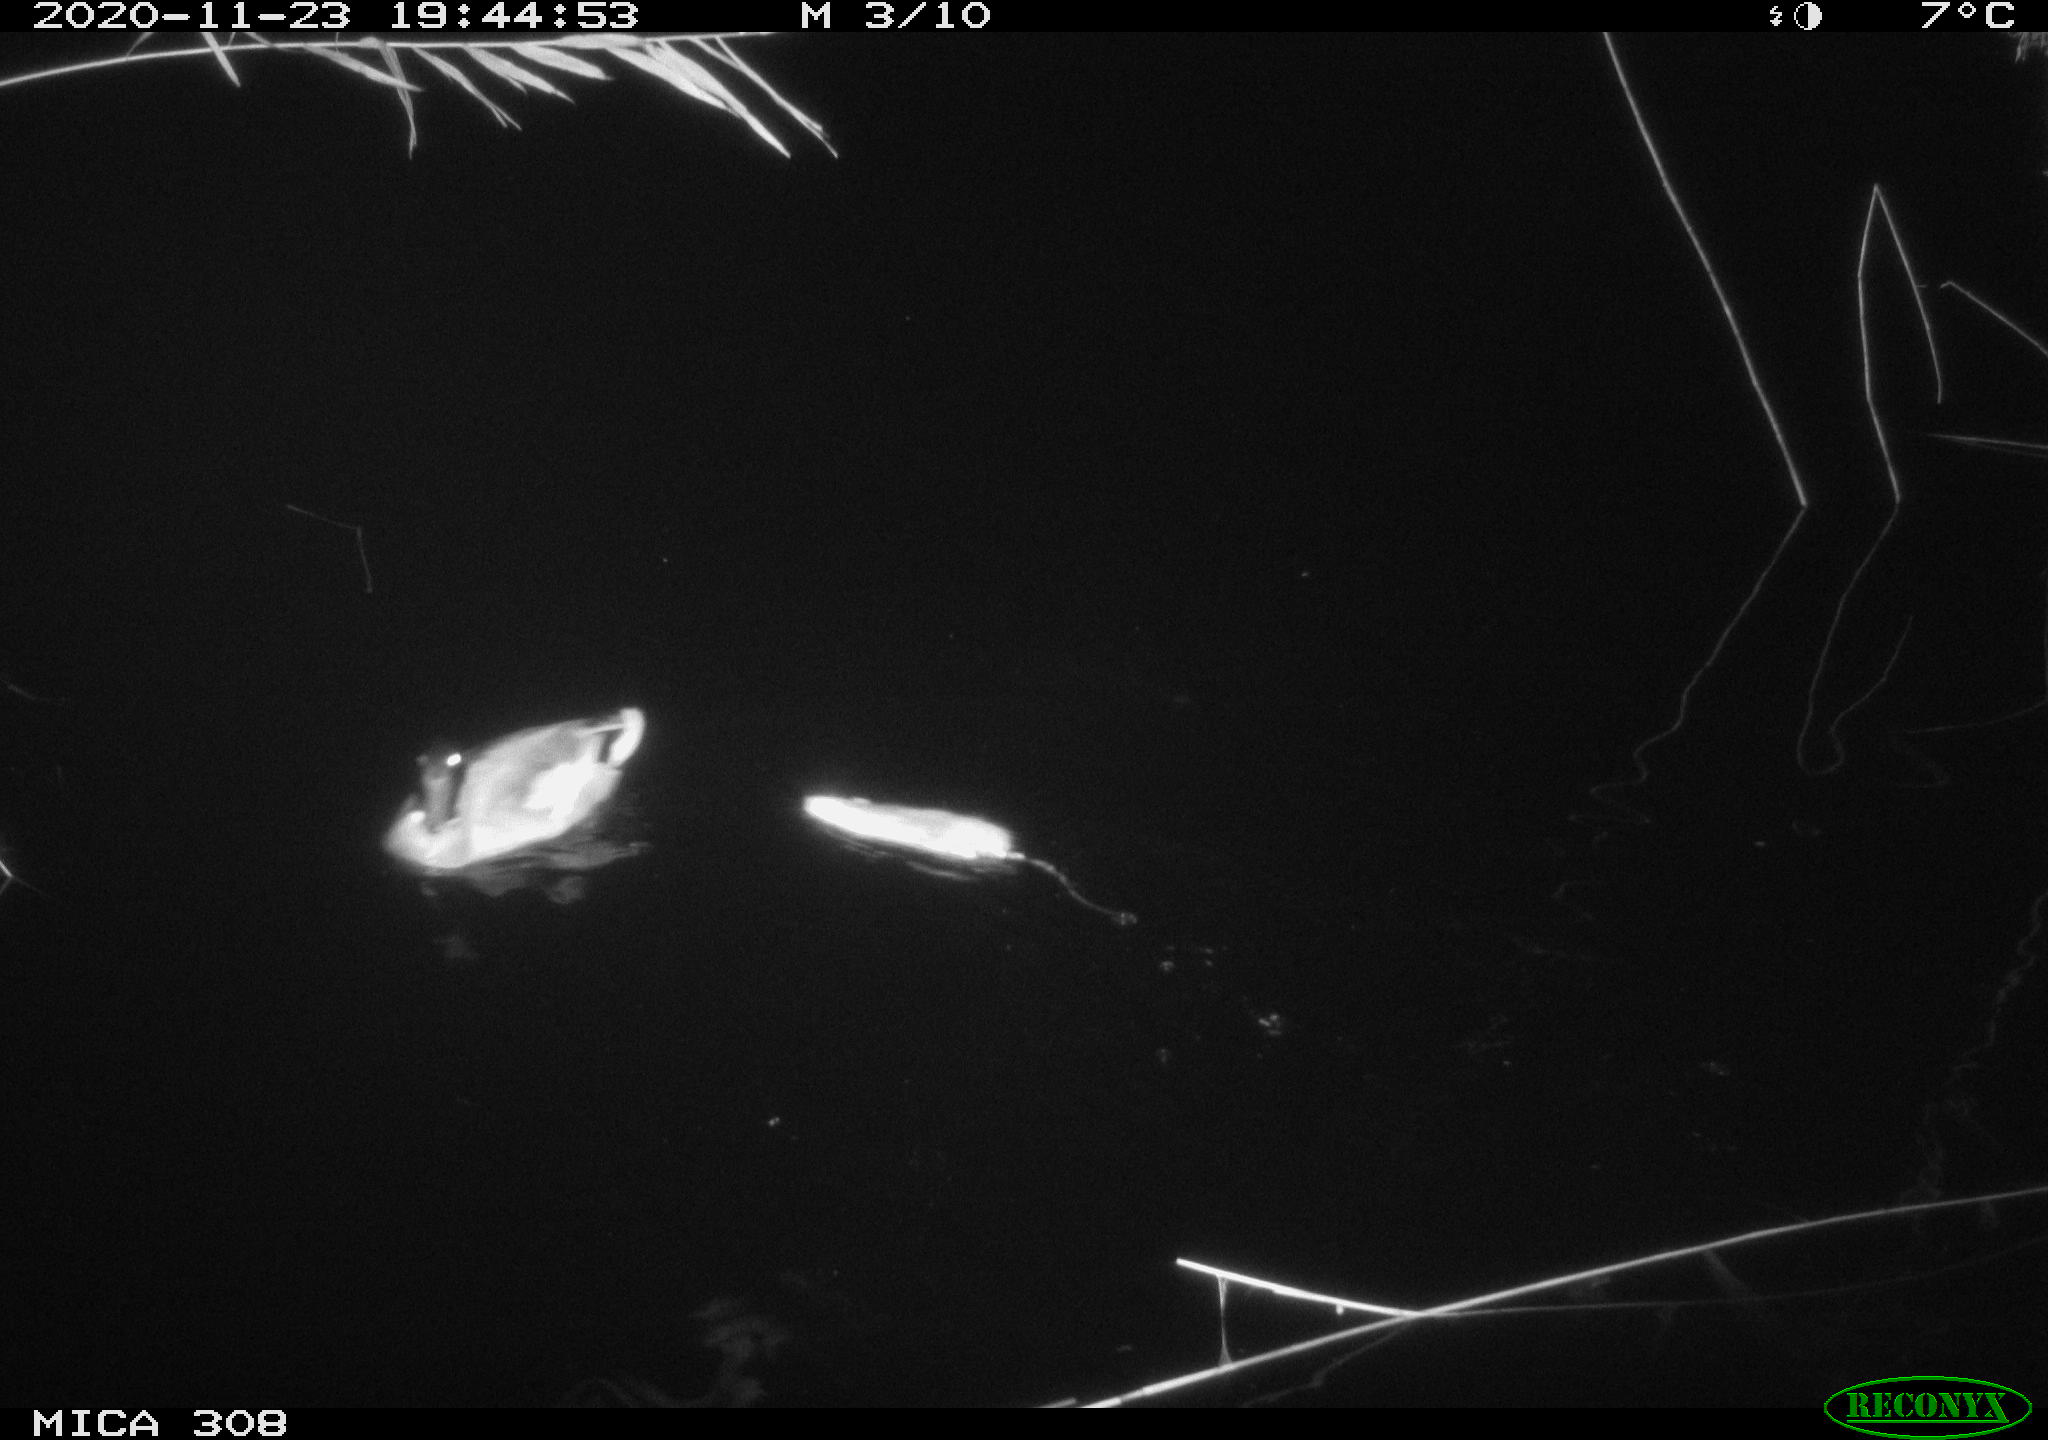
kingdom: Animalia
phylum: Chordata
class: Aves
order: Anseriformes
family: Anatidae
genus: Anas
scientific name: Anas platyrhynchos
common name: Mallard
